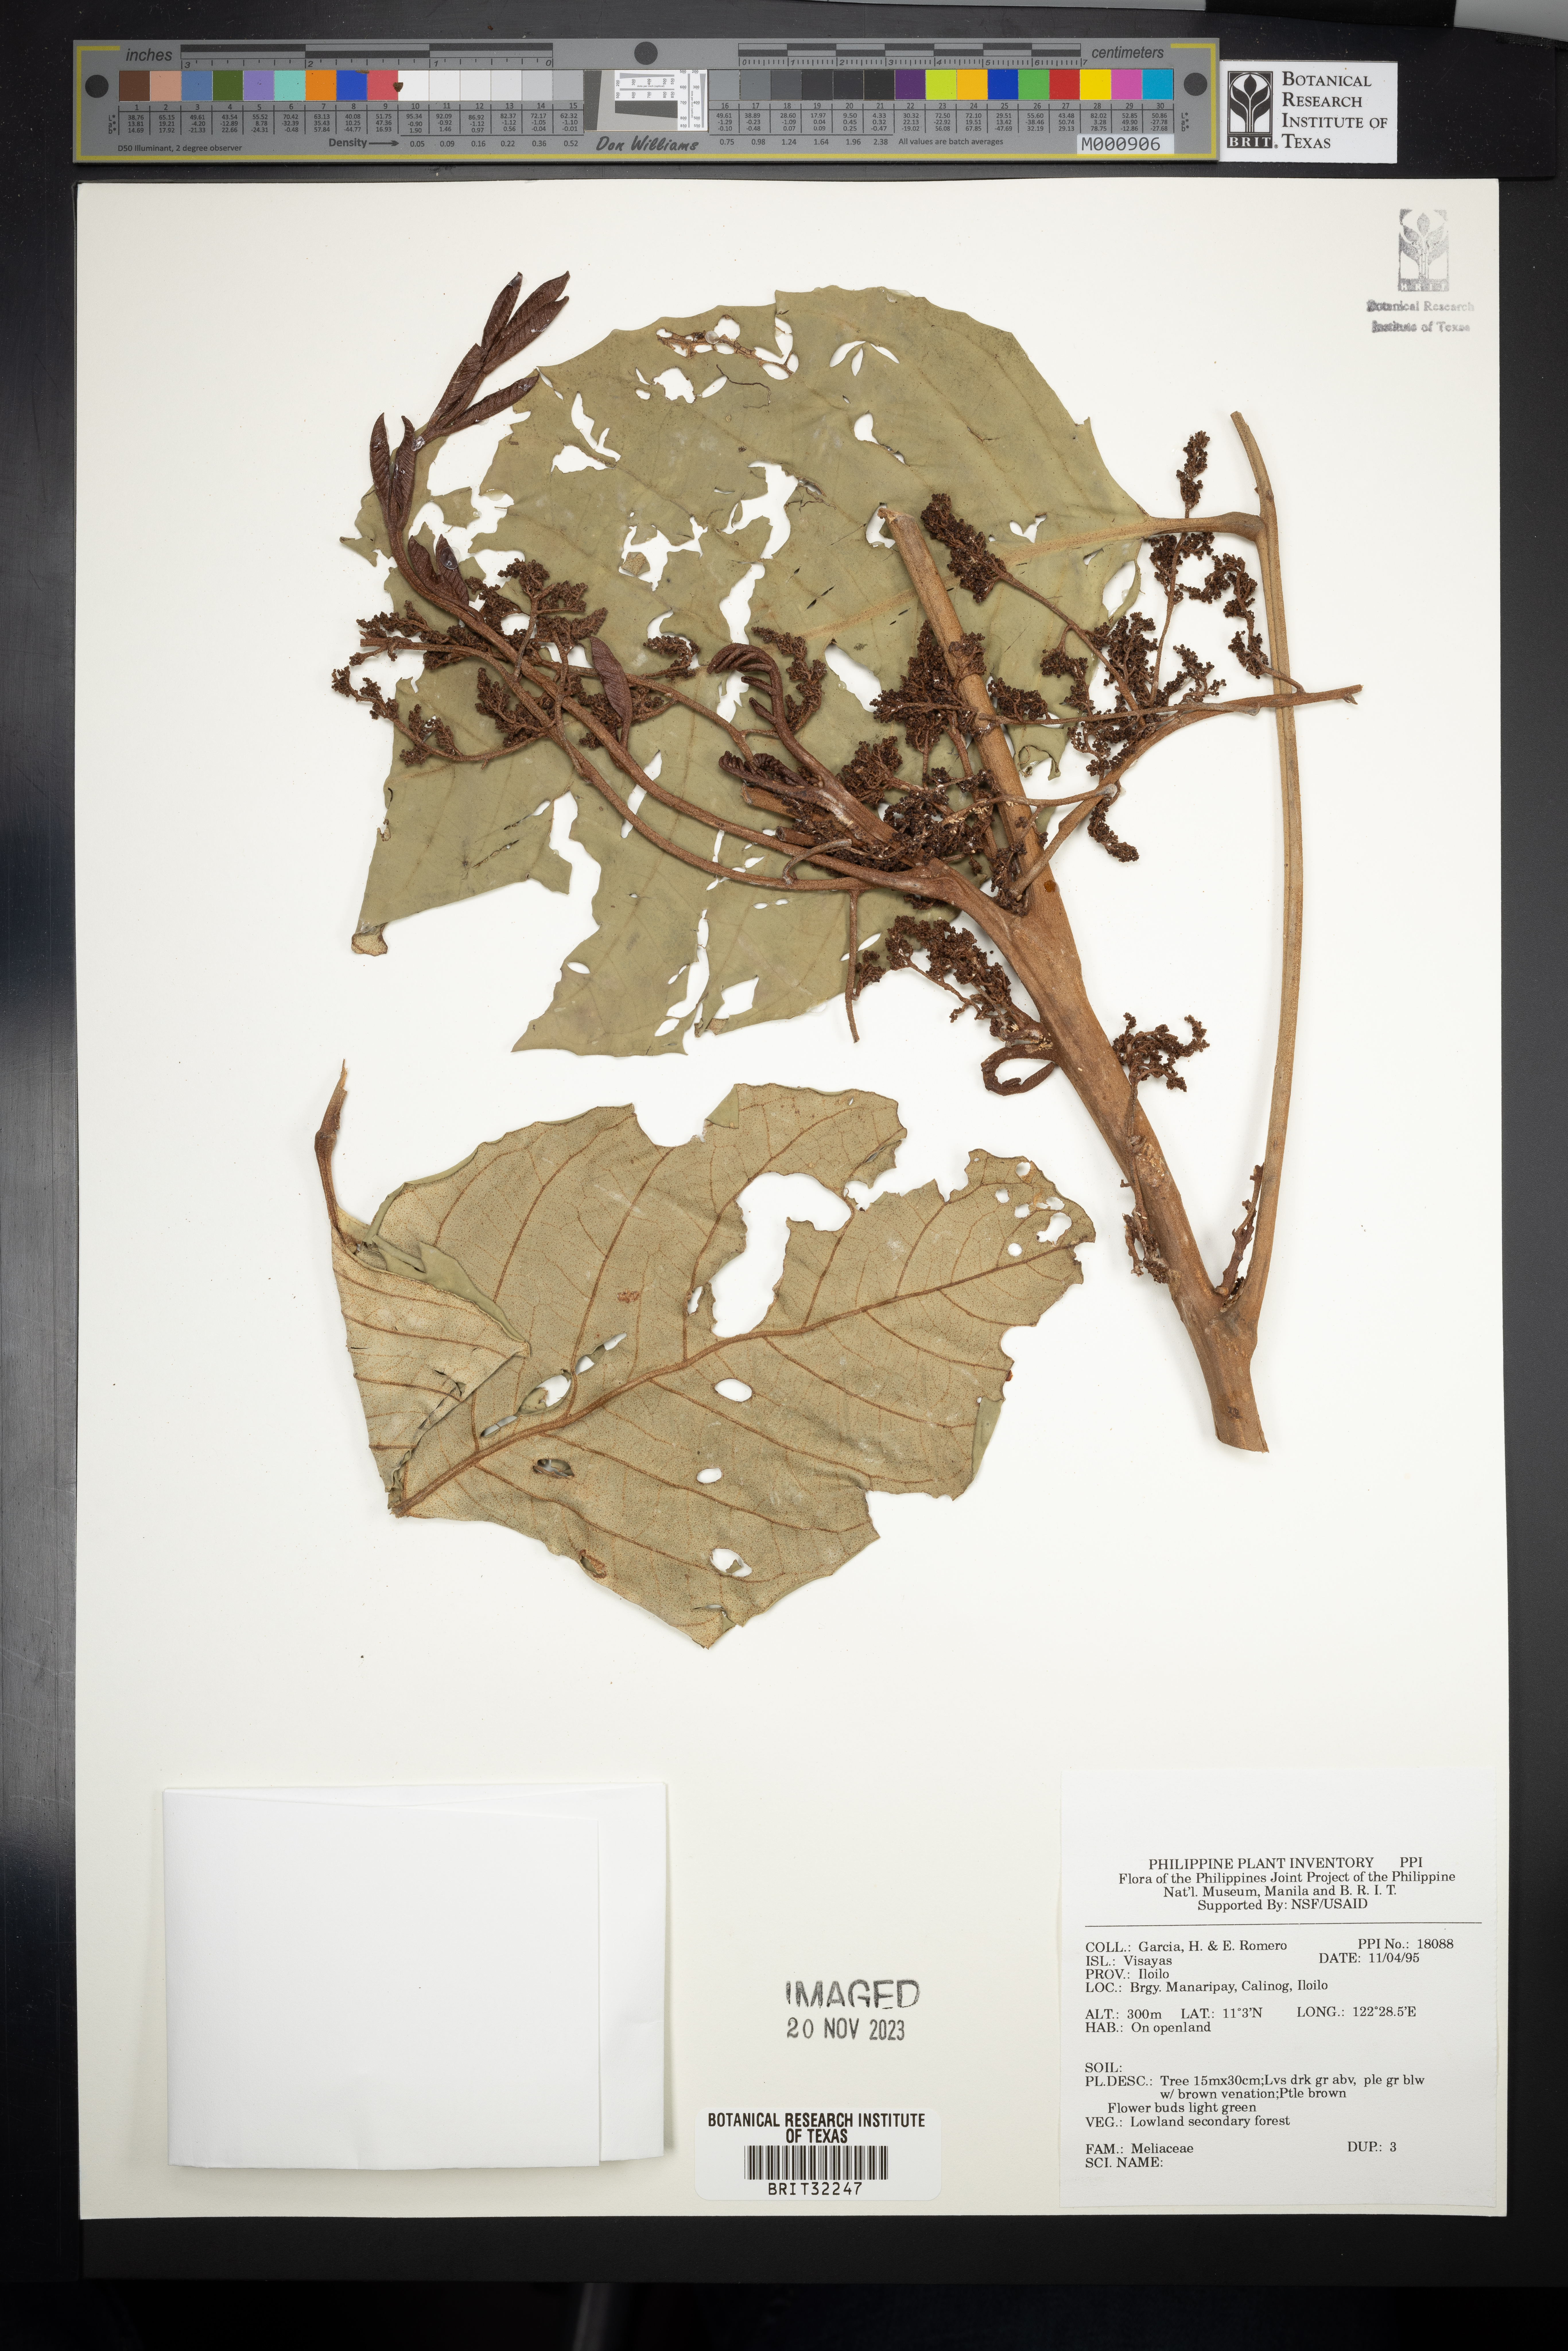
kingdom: Plantae
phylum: Tracheophyta
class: Magnoliopsida
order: Sapindales
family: Meliaceae
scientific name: Meliaceae
